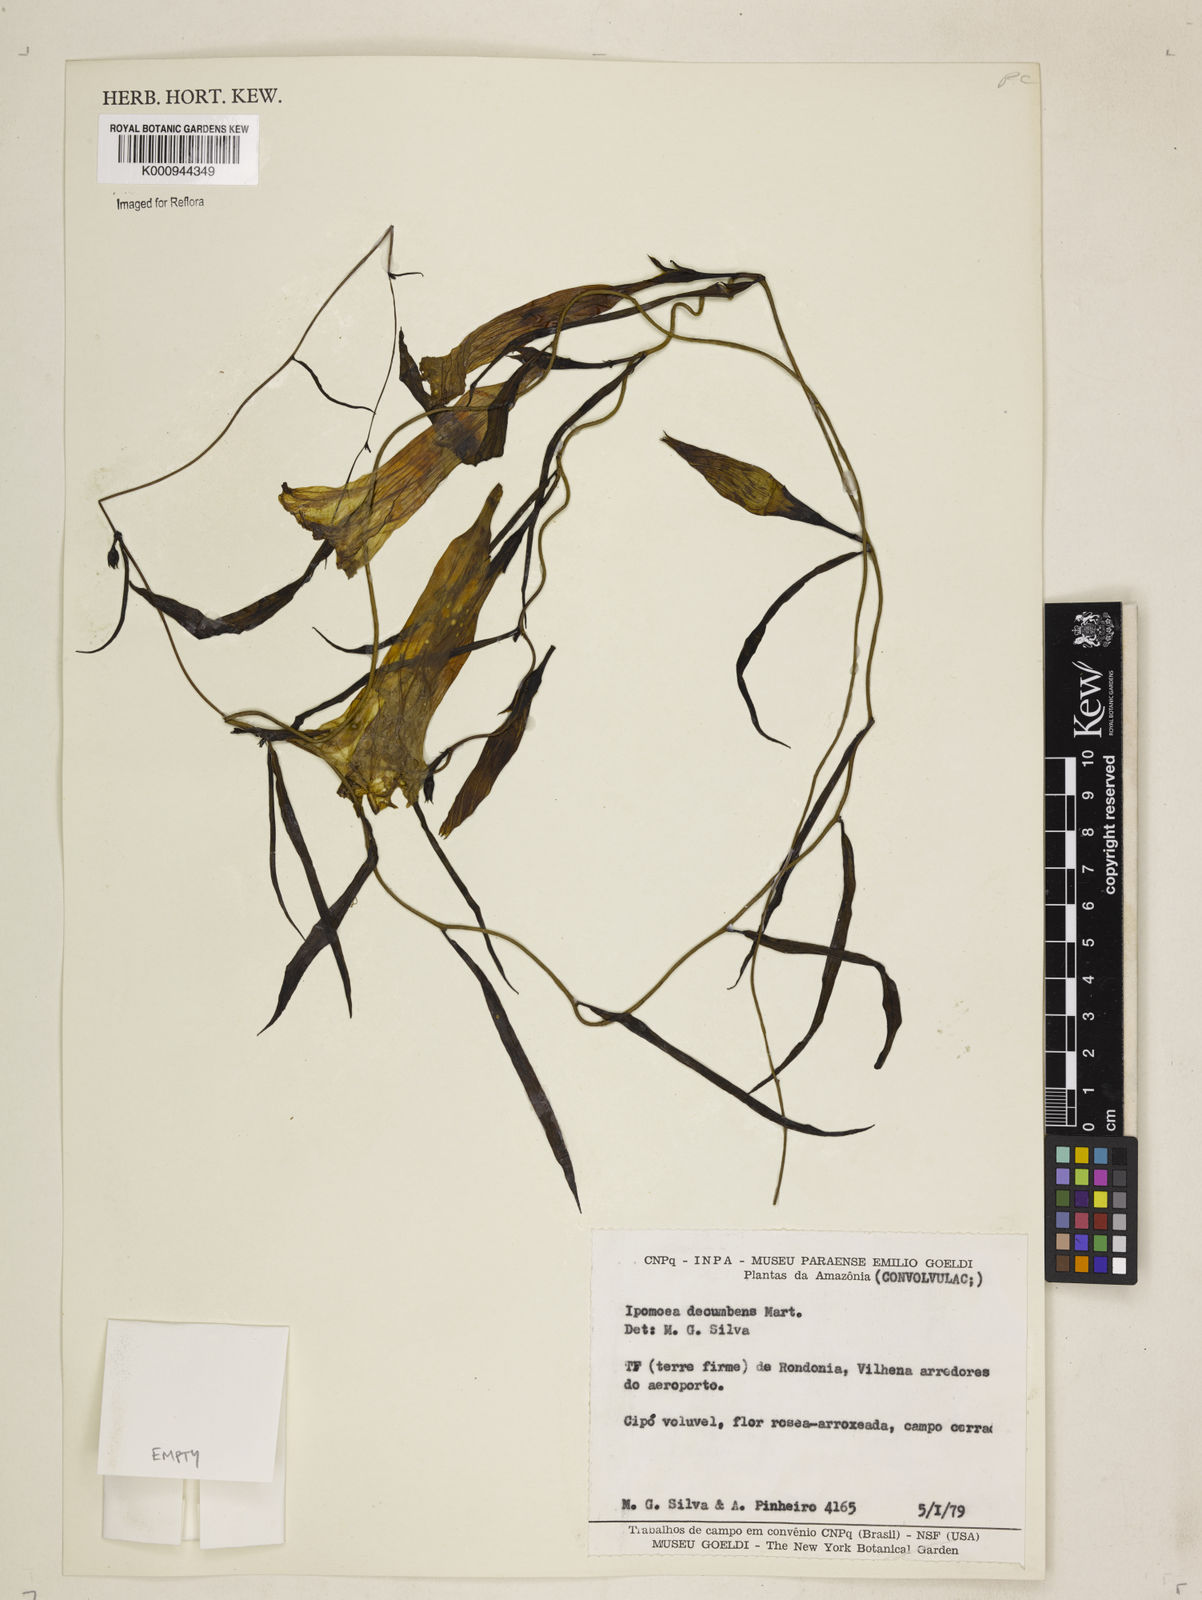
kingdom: Plantae
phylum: Tracheophyta
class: Magnoliopsida
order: Solanales
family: Convolvulaceae
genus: Ipomoea
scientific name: Ipomoea
